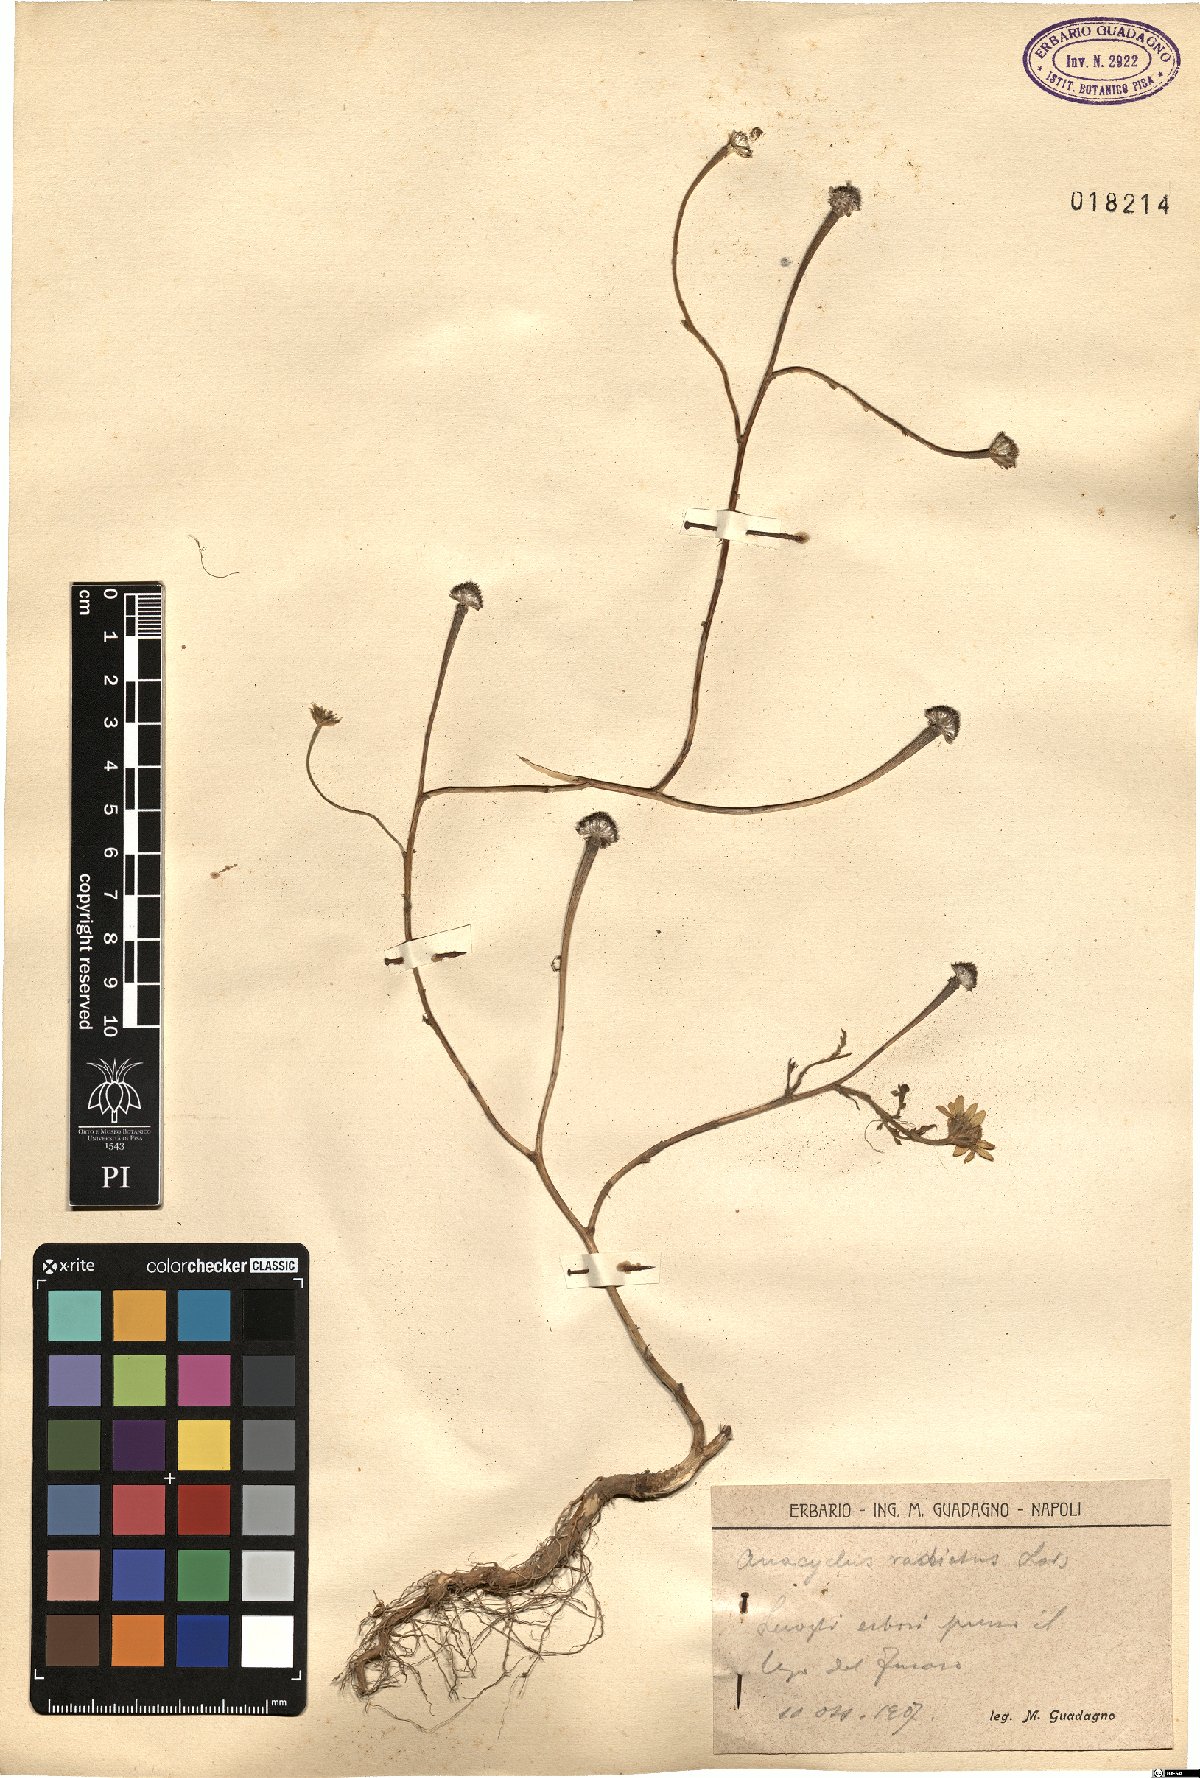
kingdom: Plantae
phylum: Tracheophyta
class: Magnoliopsida
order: Asterales
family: Asteraceae
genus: Anacyclus
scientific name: Anacyclus radiatus
